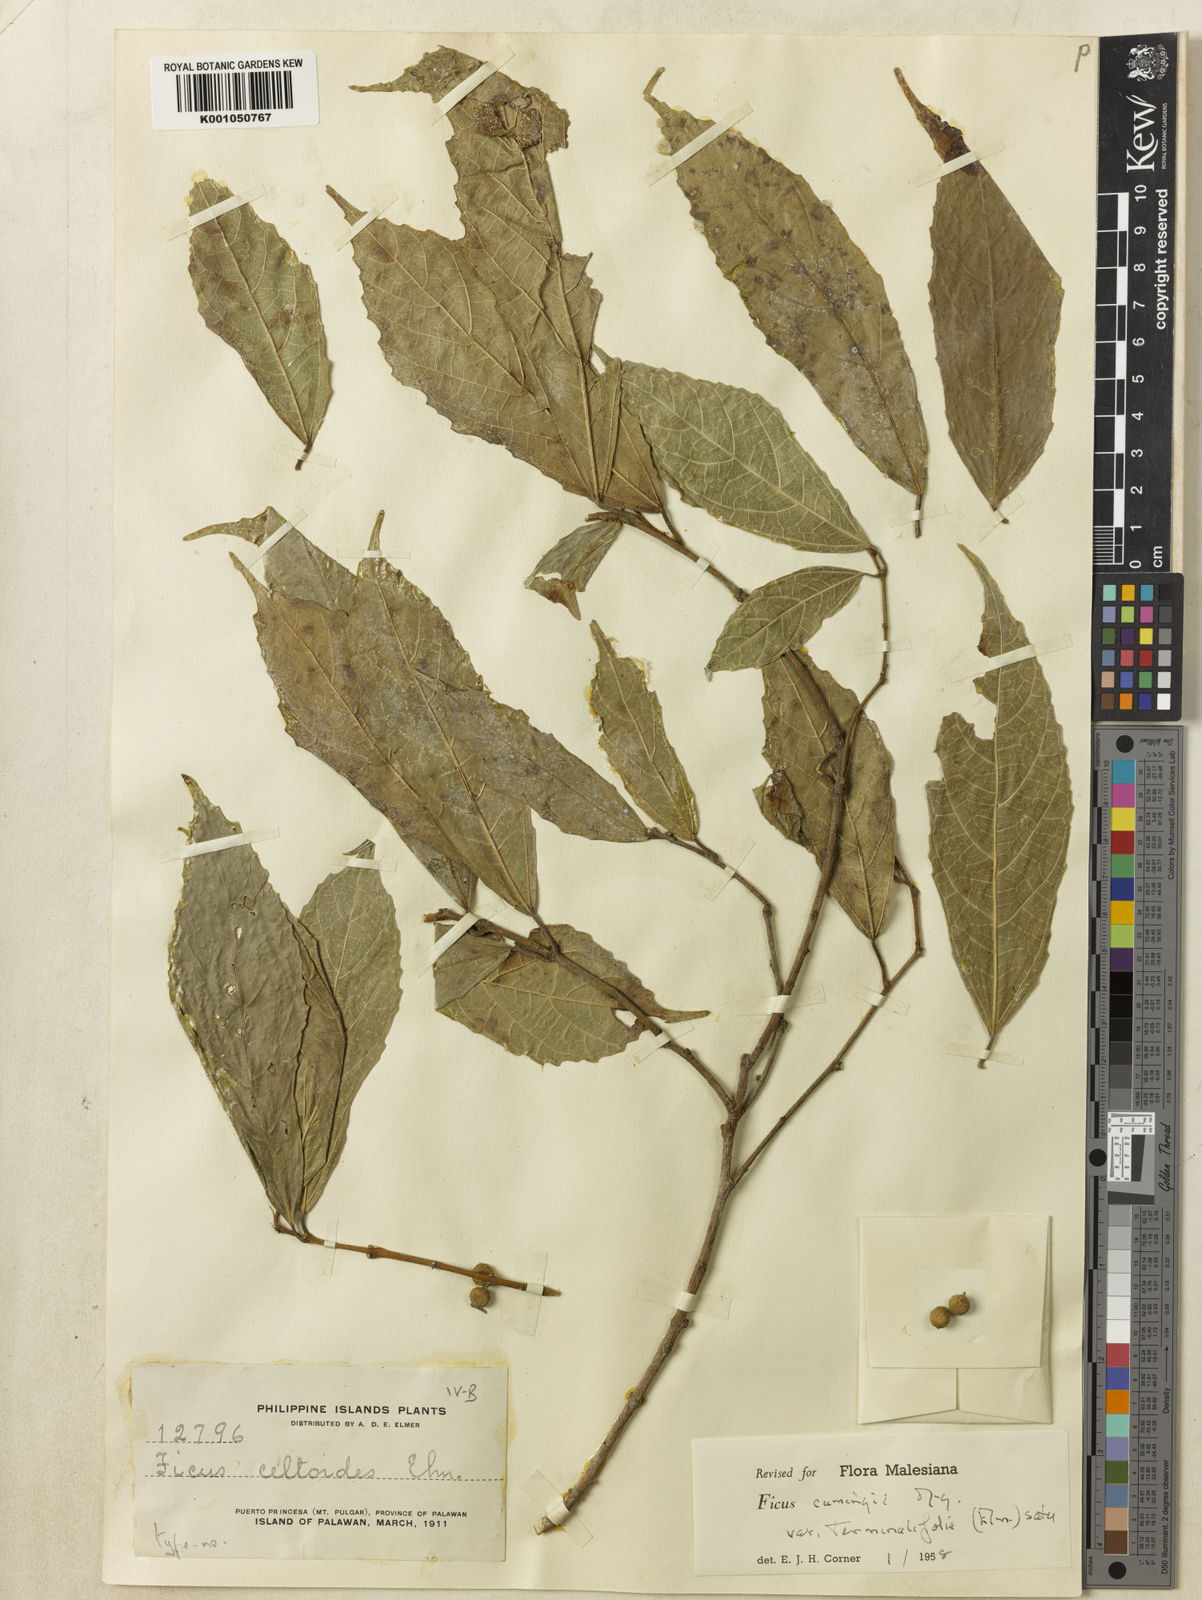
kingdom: Plantae
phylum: Tracheophyta
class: Magnoliopsida
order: Rosales
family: Moraceae
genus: Ficus
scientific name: Ficus cumingii
